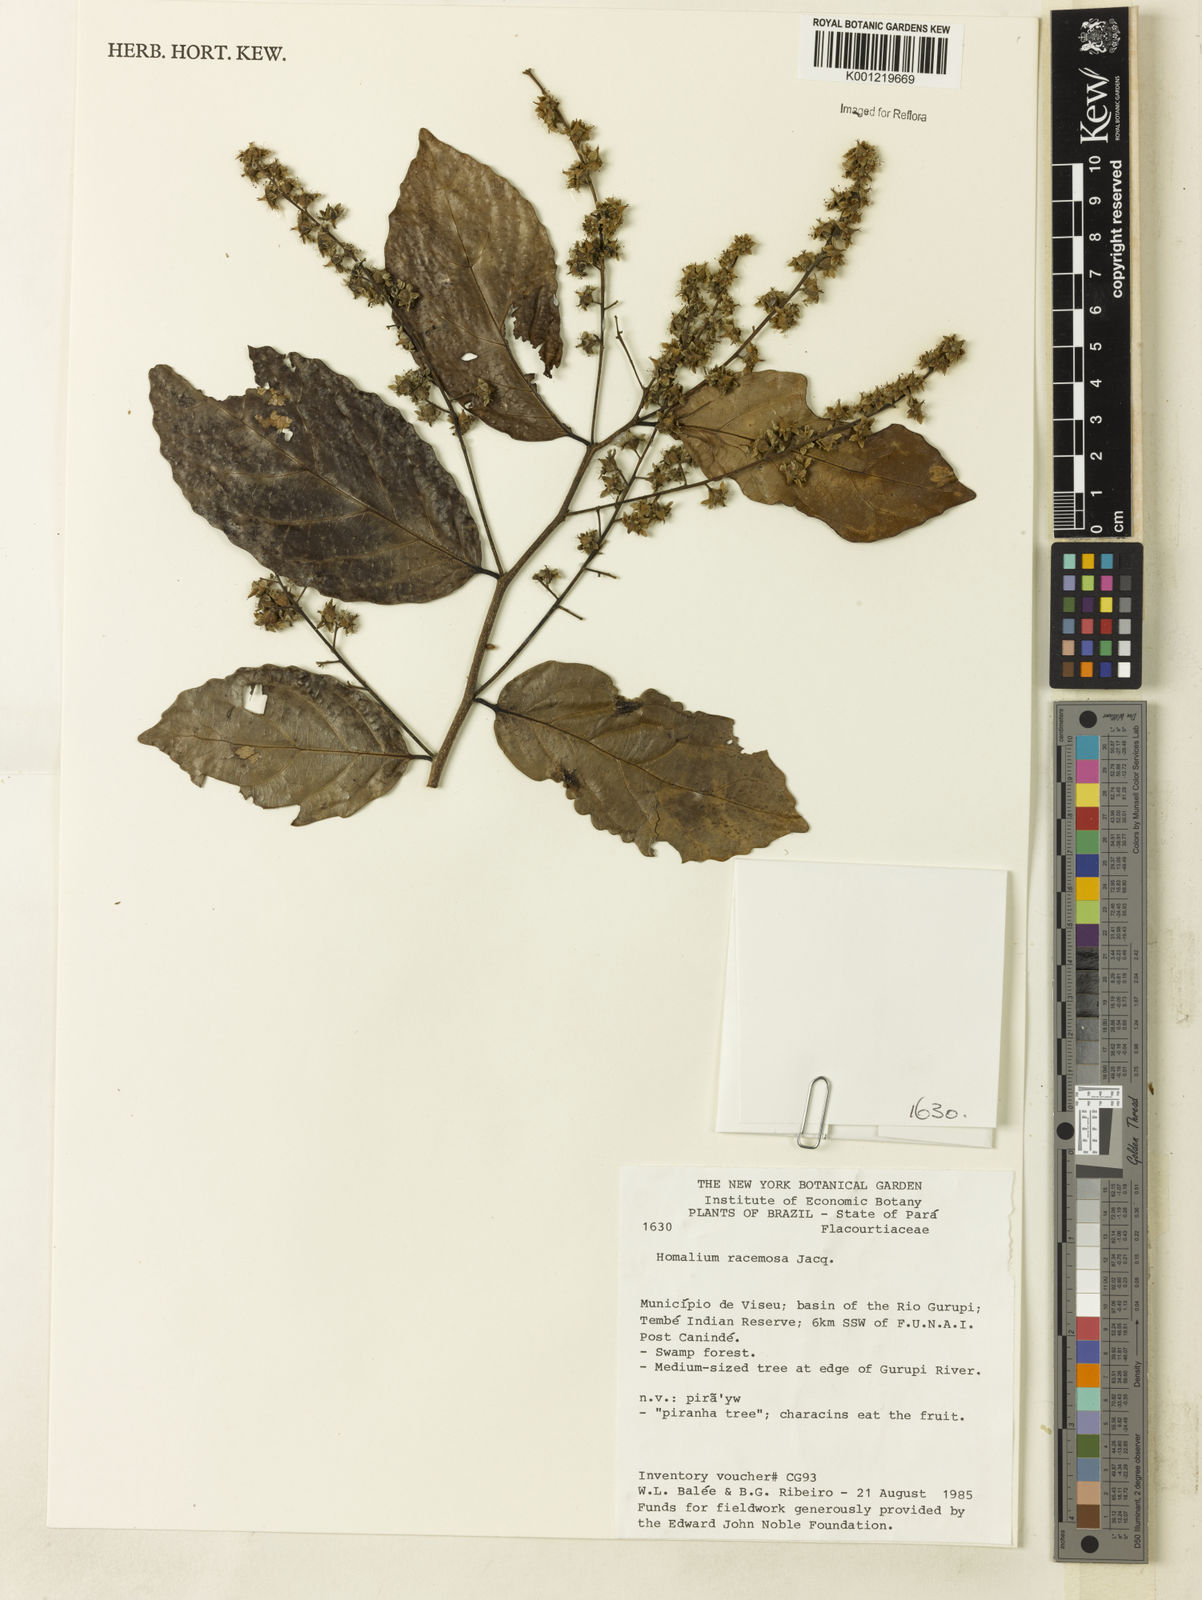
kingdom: Plantae
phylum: Tracheophyta
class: Magnoliopsida
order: Malpighiales
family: Salicaceae
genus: Homalium
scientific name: Homalium racemosum
